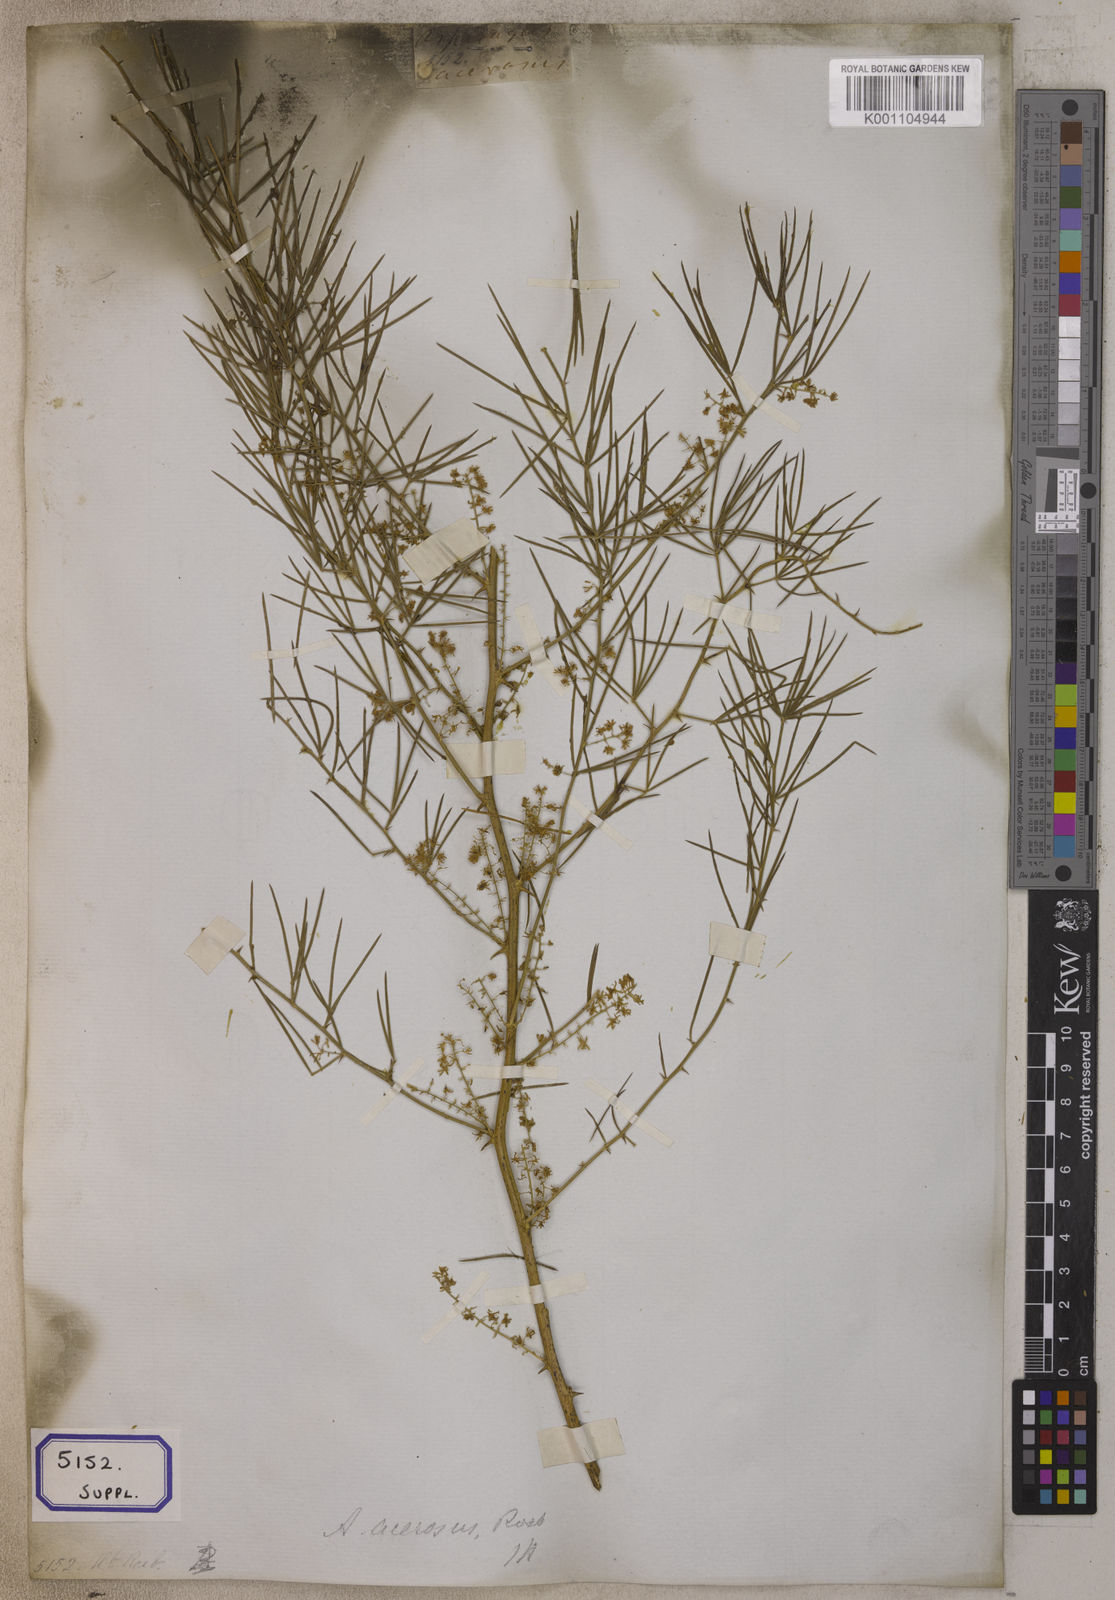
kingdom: Plantae
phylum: Tracheophyta
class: Liliopsida
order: Asparagales
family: Asparagaceae
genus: Asparagus
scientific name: Asparagus racemosus
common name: Asparagus-fern
